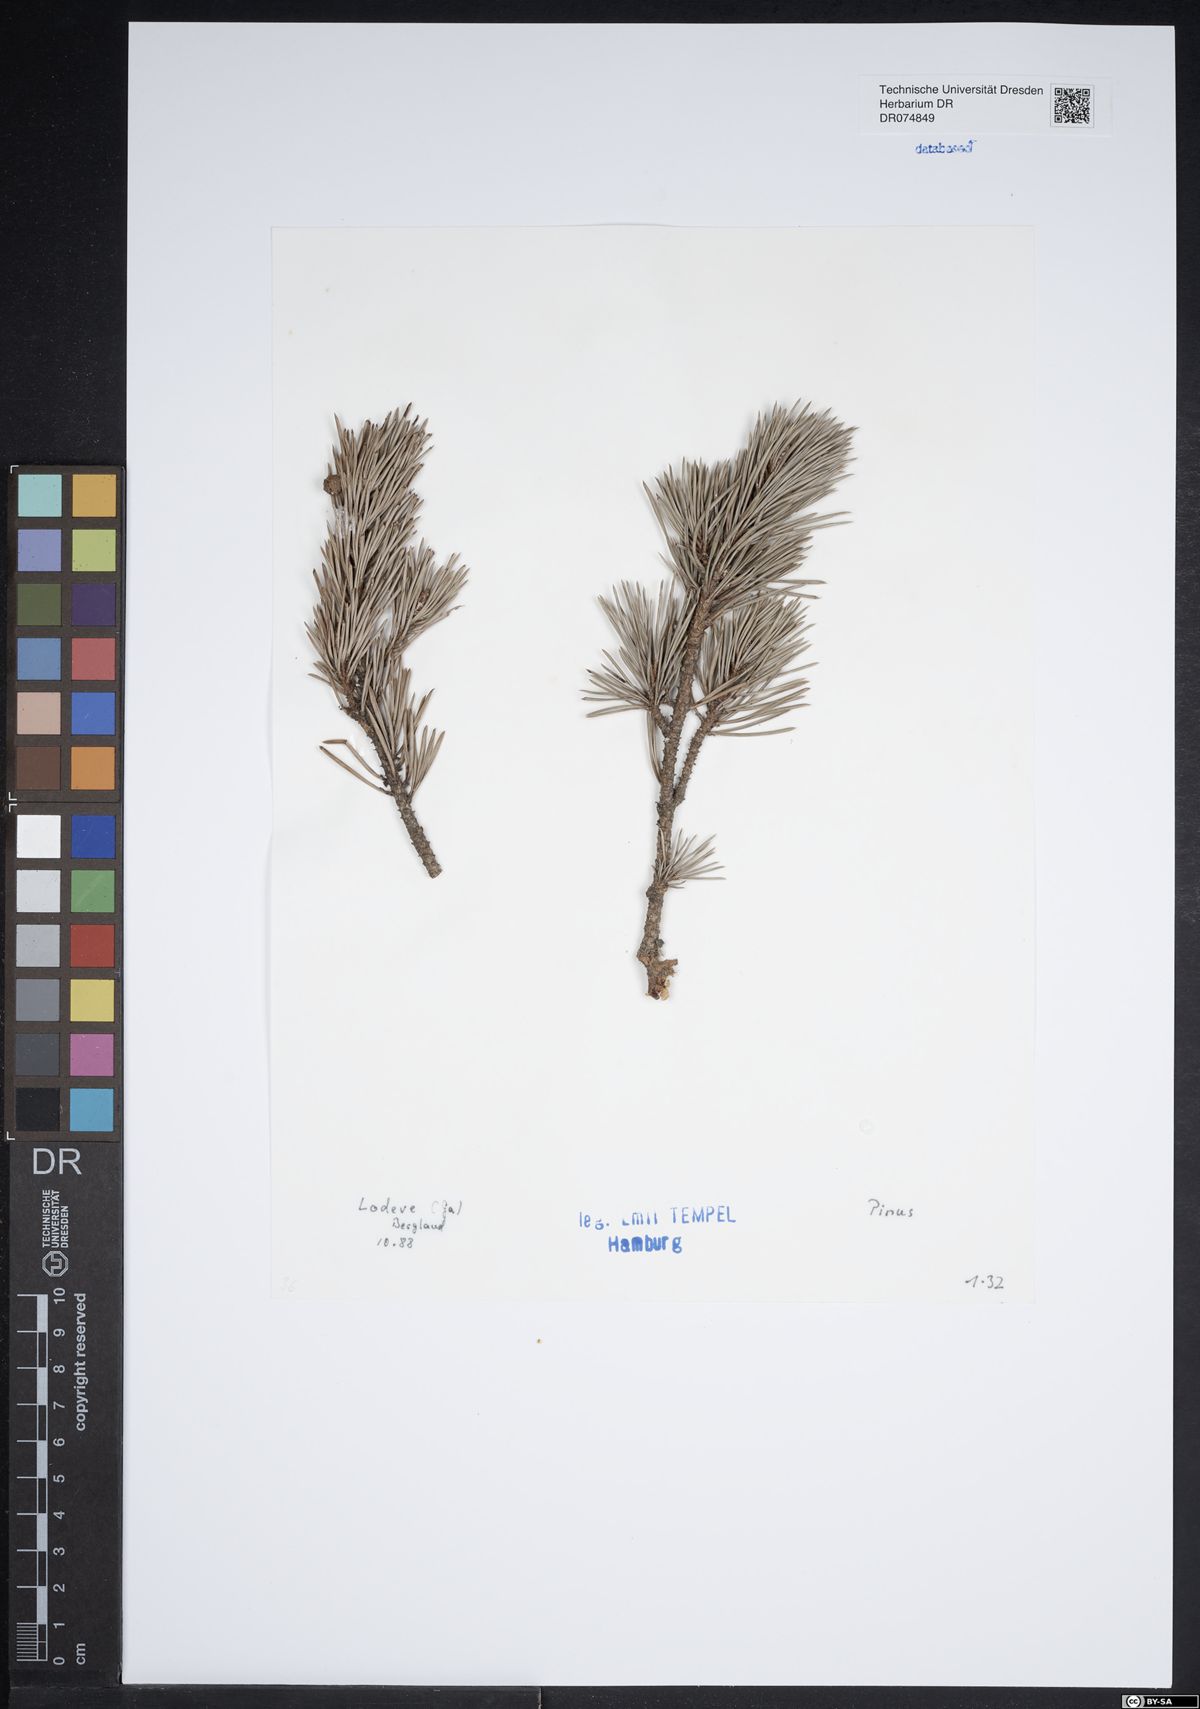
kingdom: Plantae
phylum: Tracheophyta
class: Pinopsida
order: Pinales
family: Pinaceae
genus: Pinus
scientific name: Pinus
